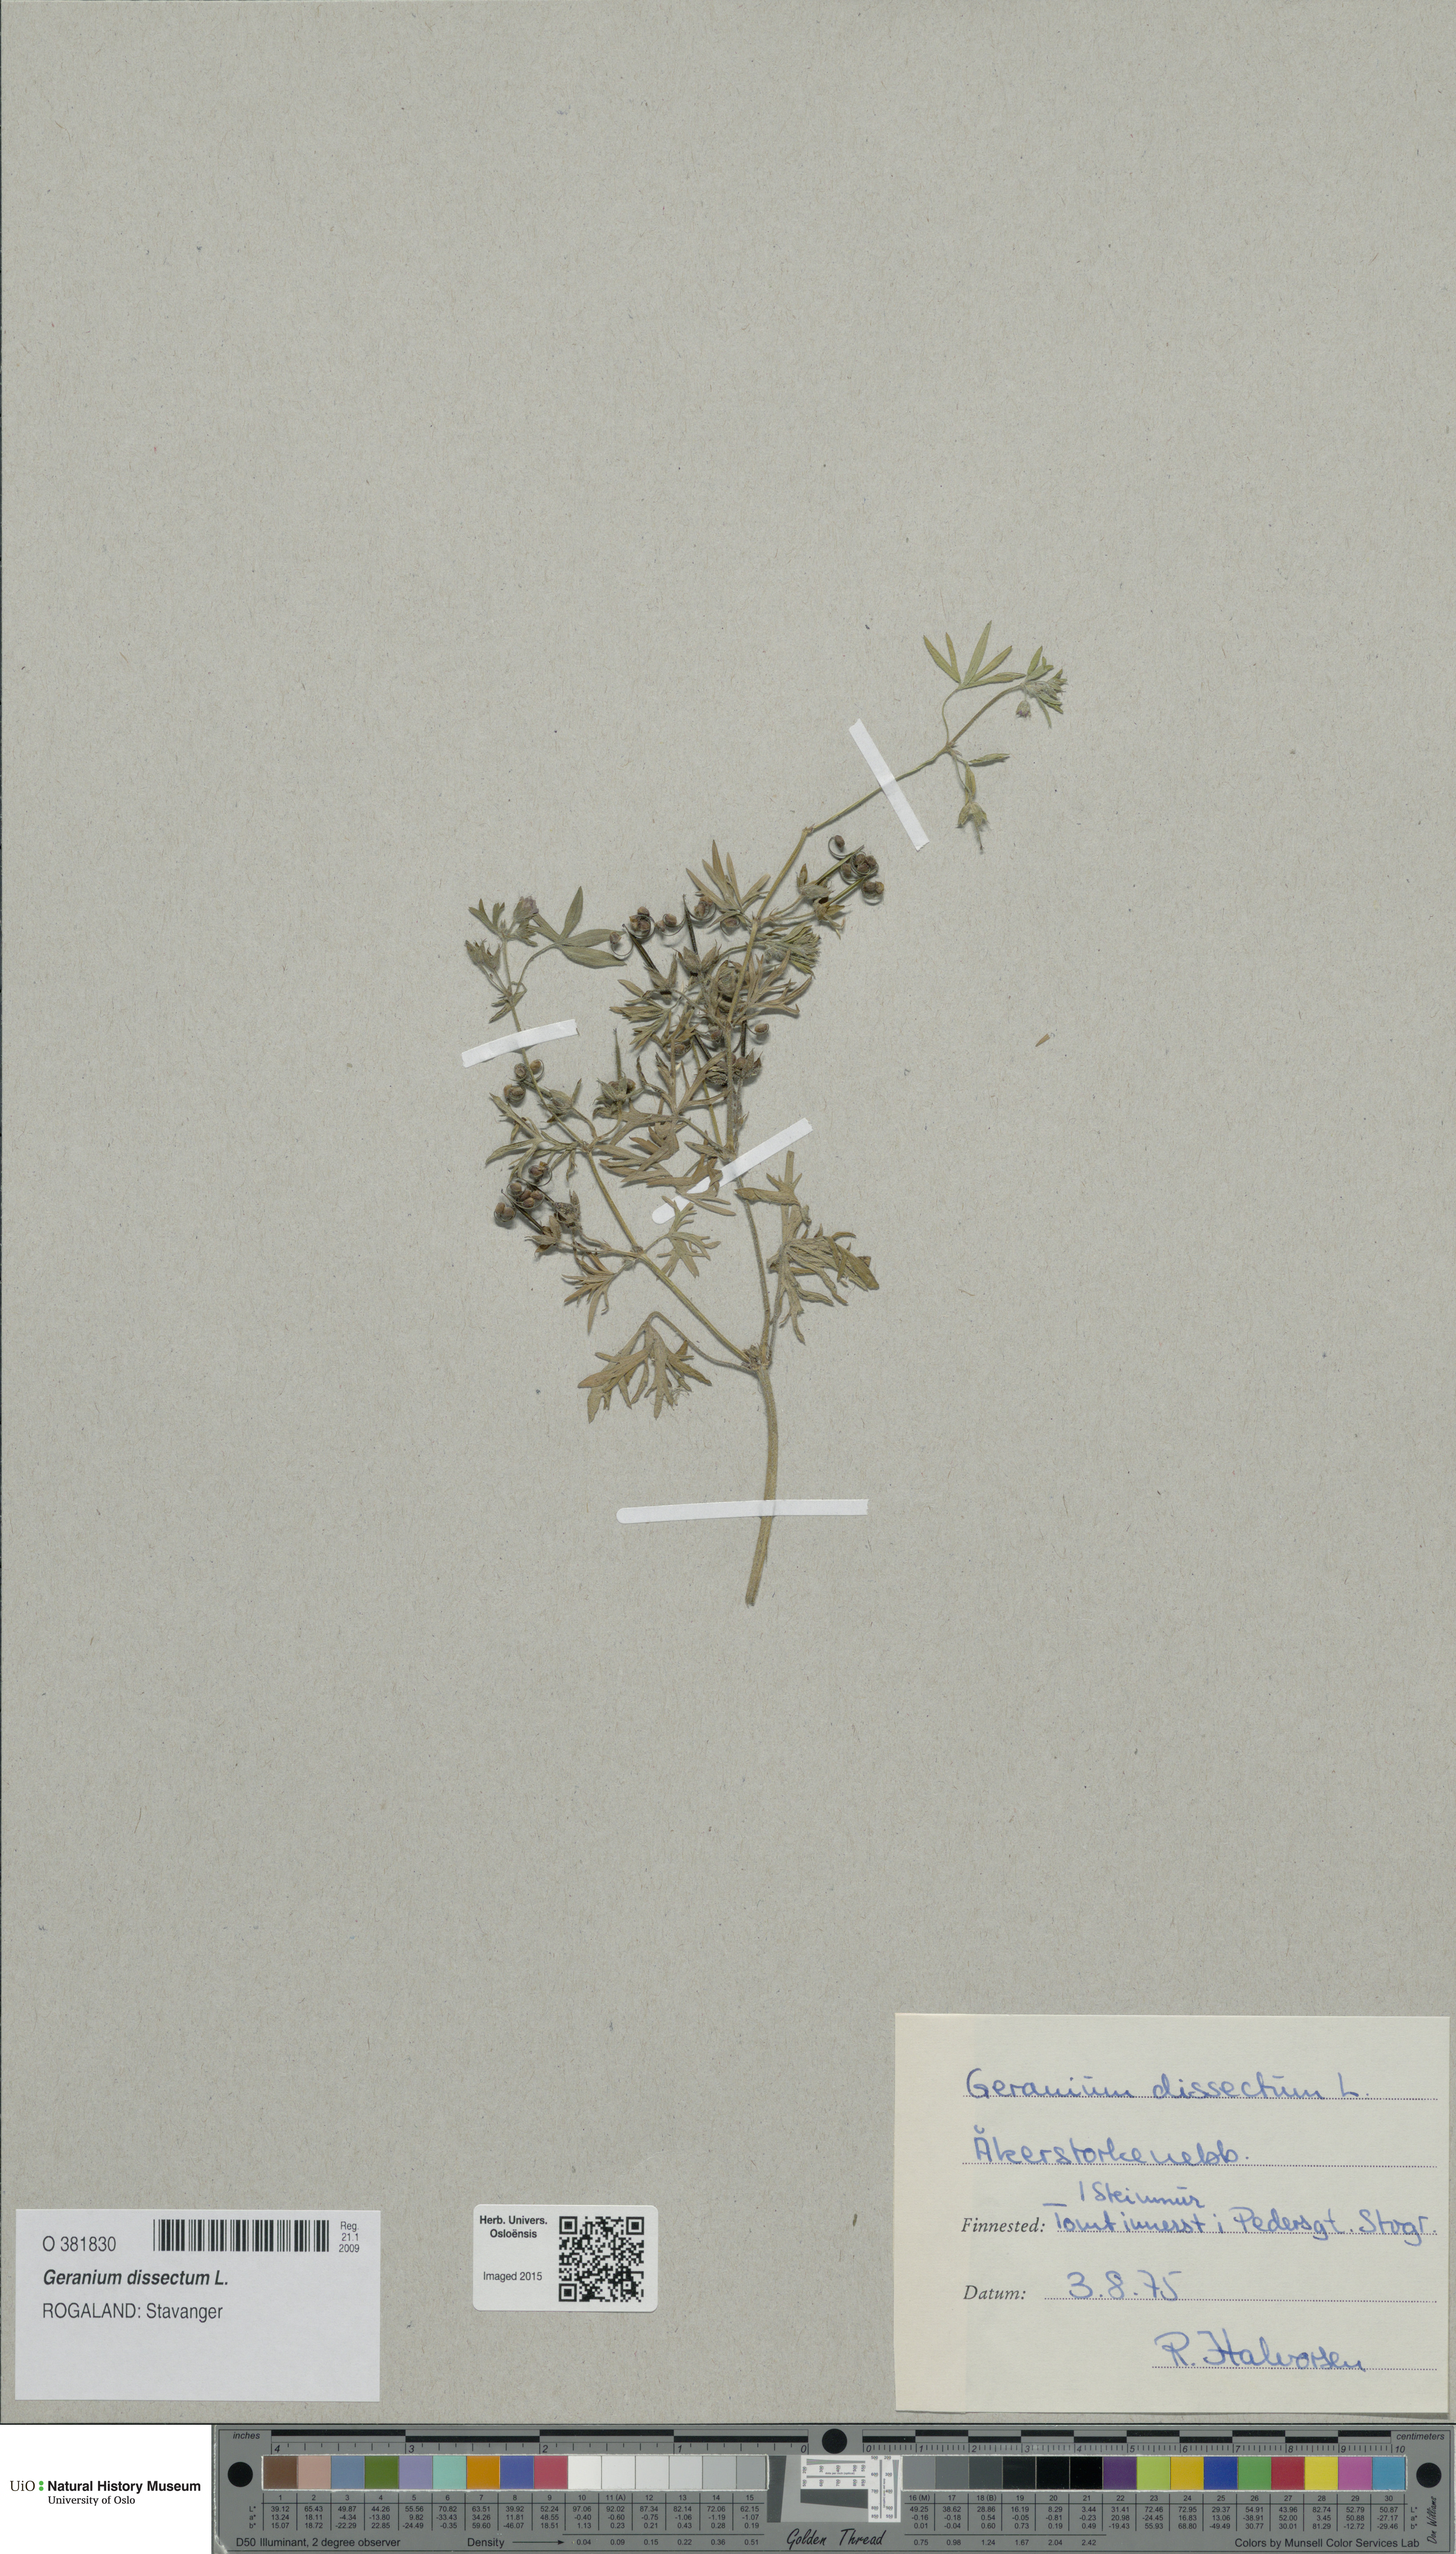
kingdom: Plantae
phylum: Tracheophyta
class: Magnoliopsida
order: Geraniales
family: Geraniaceae
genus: Geranium
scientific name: Geranium dissectum
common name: Cut-leaved crane's-bill
